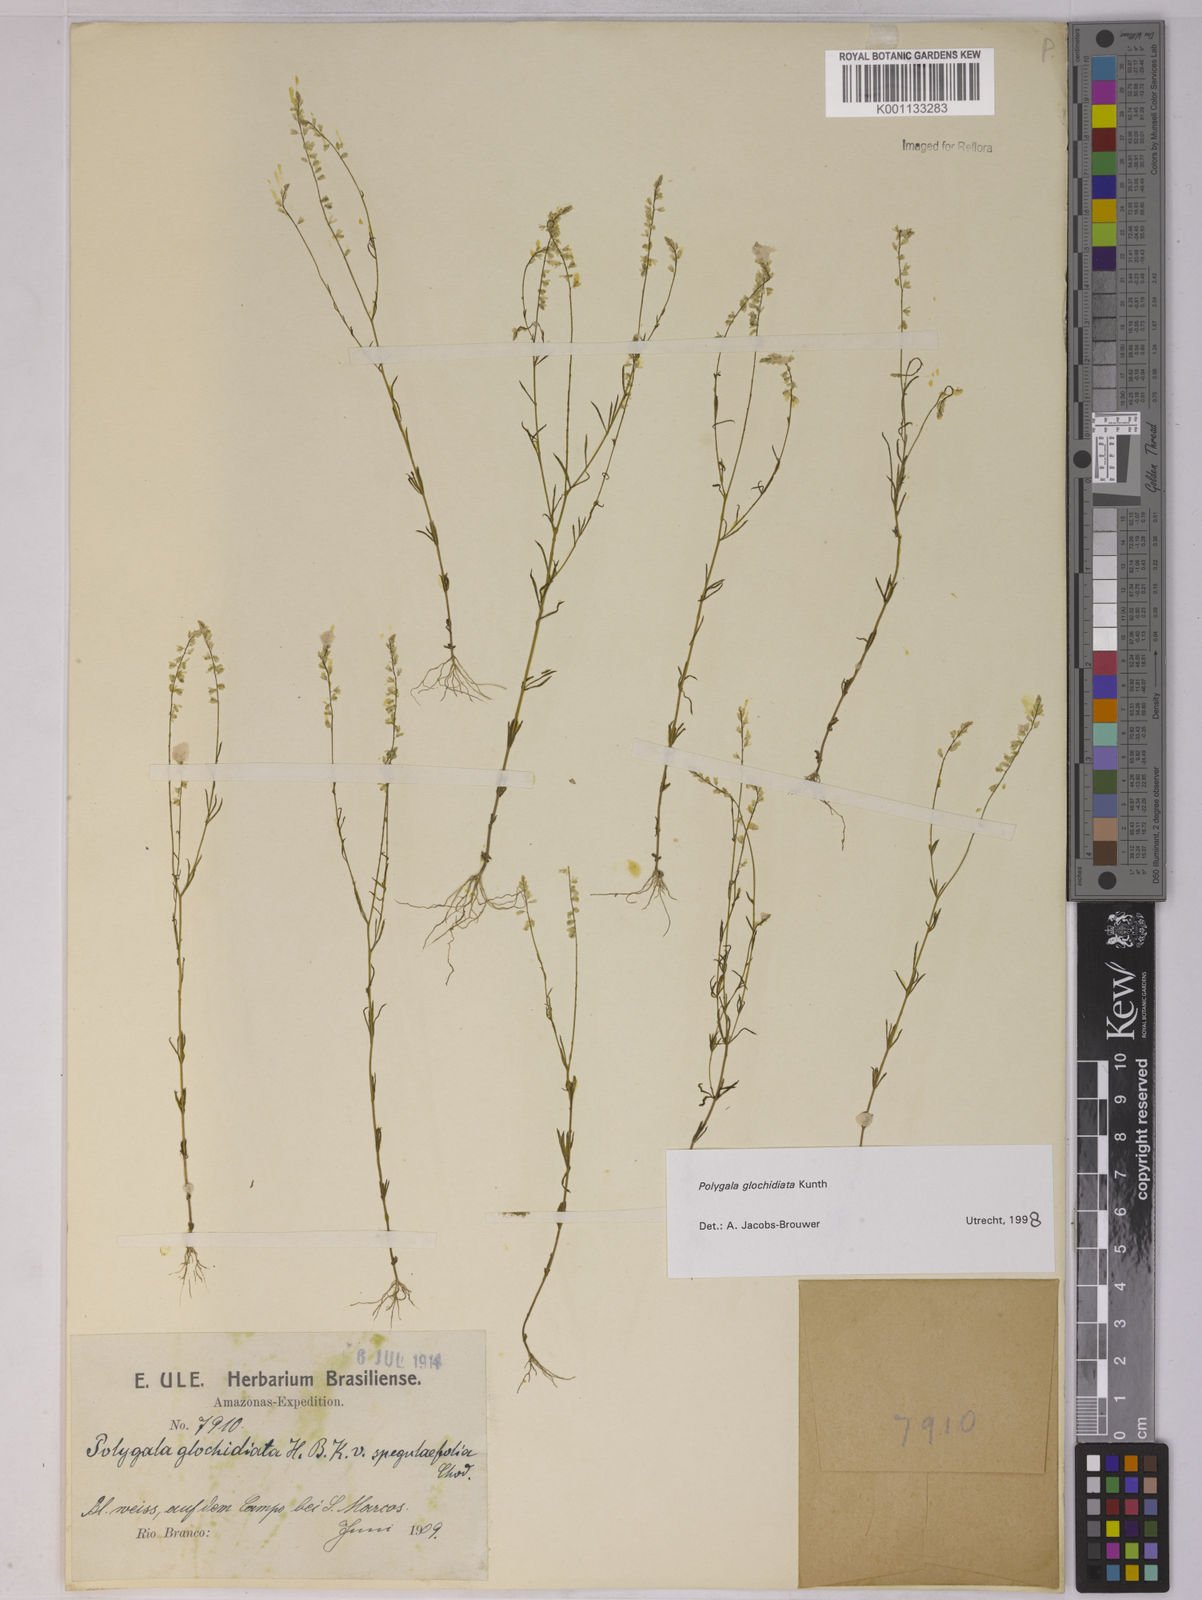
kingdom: Plantae
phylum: Tracheophyta
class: Magnoliopsida
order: Fabales
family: Polygalaceae
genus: Polygala
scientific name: Polygala glochidiata
